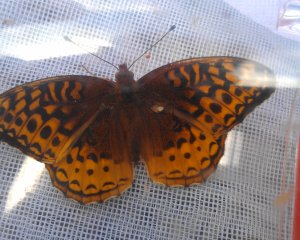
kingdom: Animalia
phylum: Arthropoda
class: Insecta
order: Lepidoptera
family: Nymphalidae
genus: Speyeria
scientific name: Speyeria cybele
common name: Great Spangled Fritillary
